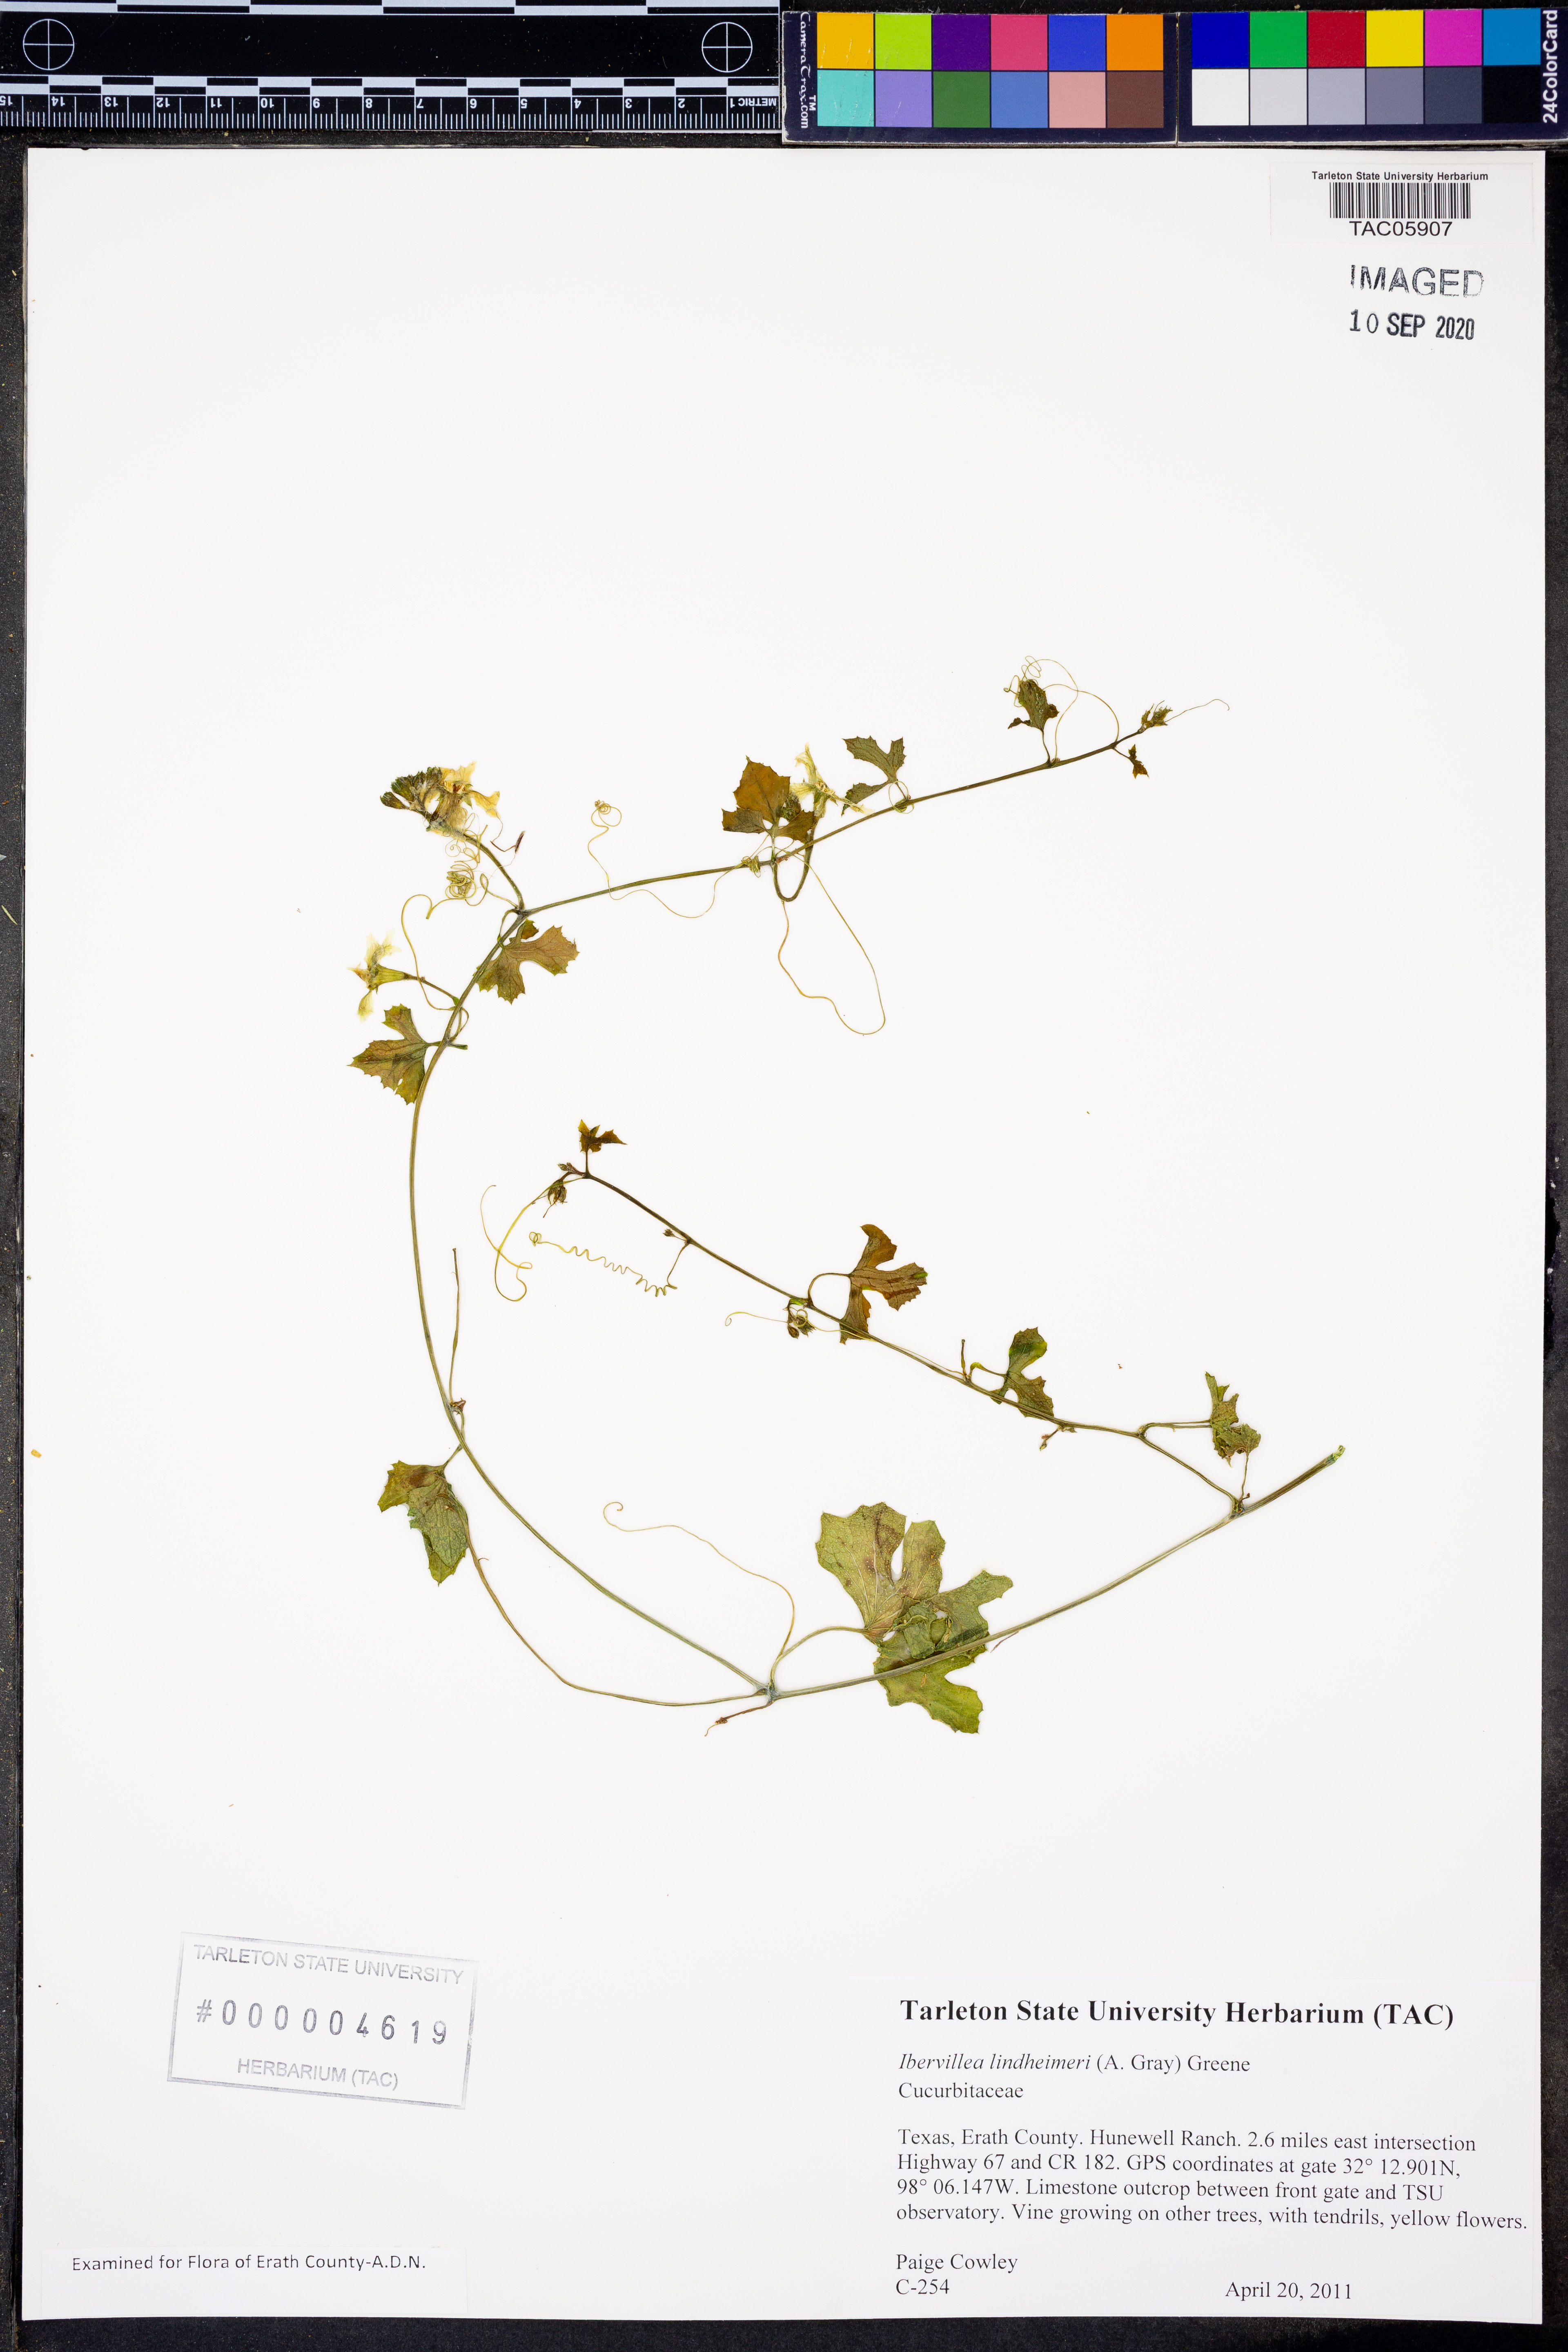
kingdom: Plantae
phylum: Tracheophyta
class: Magnoliopsida
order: Cucurbitales
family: Cucurbitaceae
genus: Ibervillea
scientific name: Ibervillea lindheimeri
